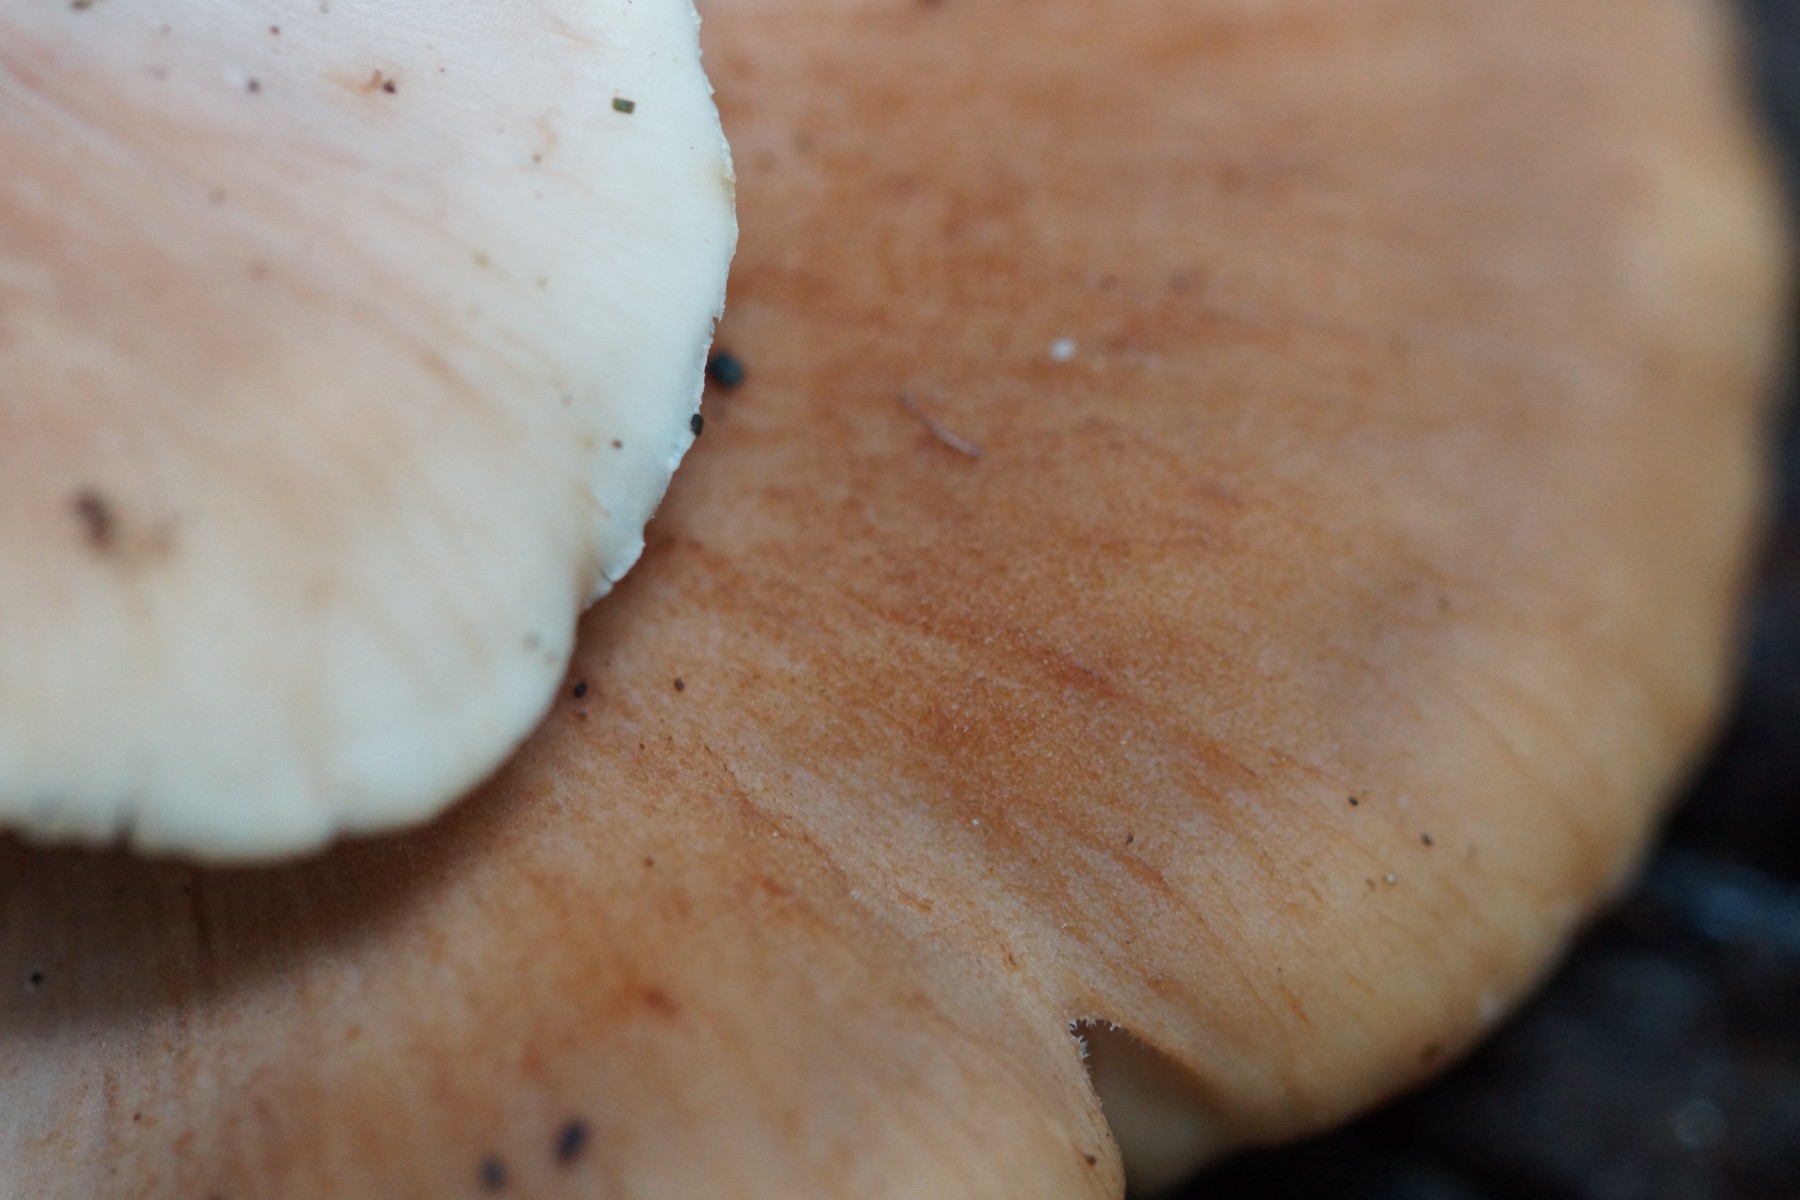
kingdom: Fungi
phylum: Basidiomycota
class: Agaricomycetes
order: Russulales
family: Auriscalpiaceae
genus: Lentinellus
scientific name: Lentinellus ursinus
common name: børstehåret savbladhat
